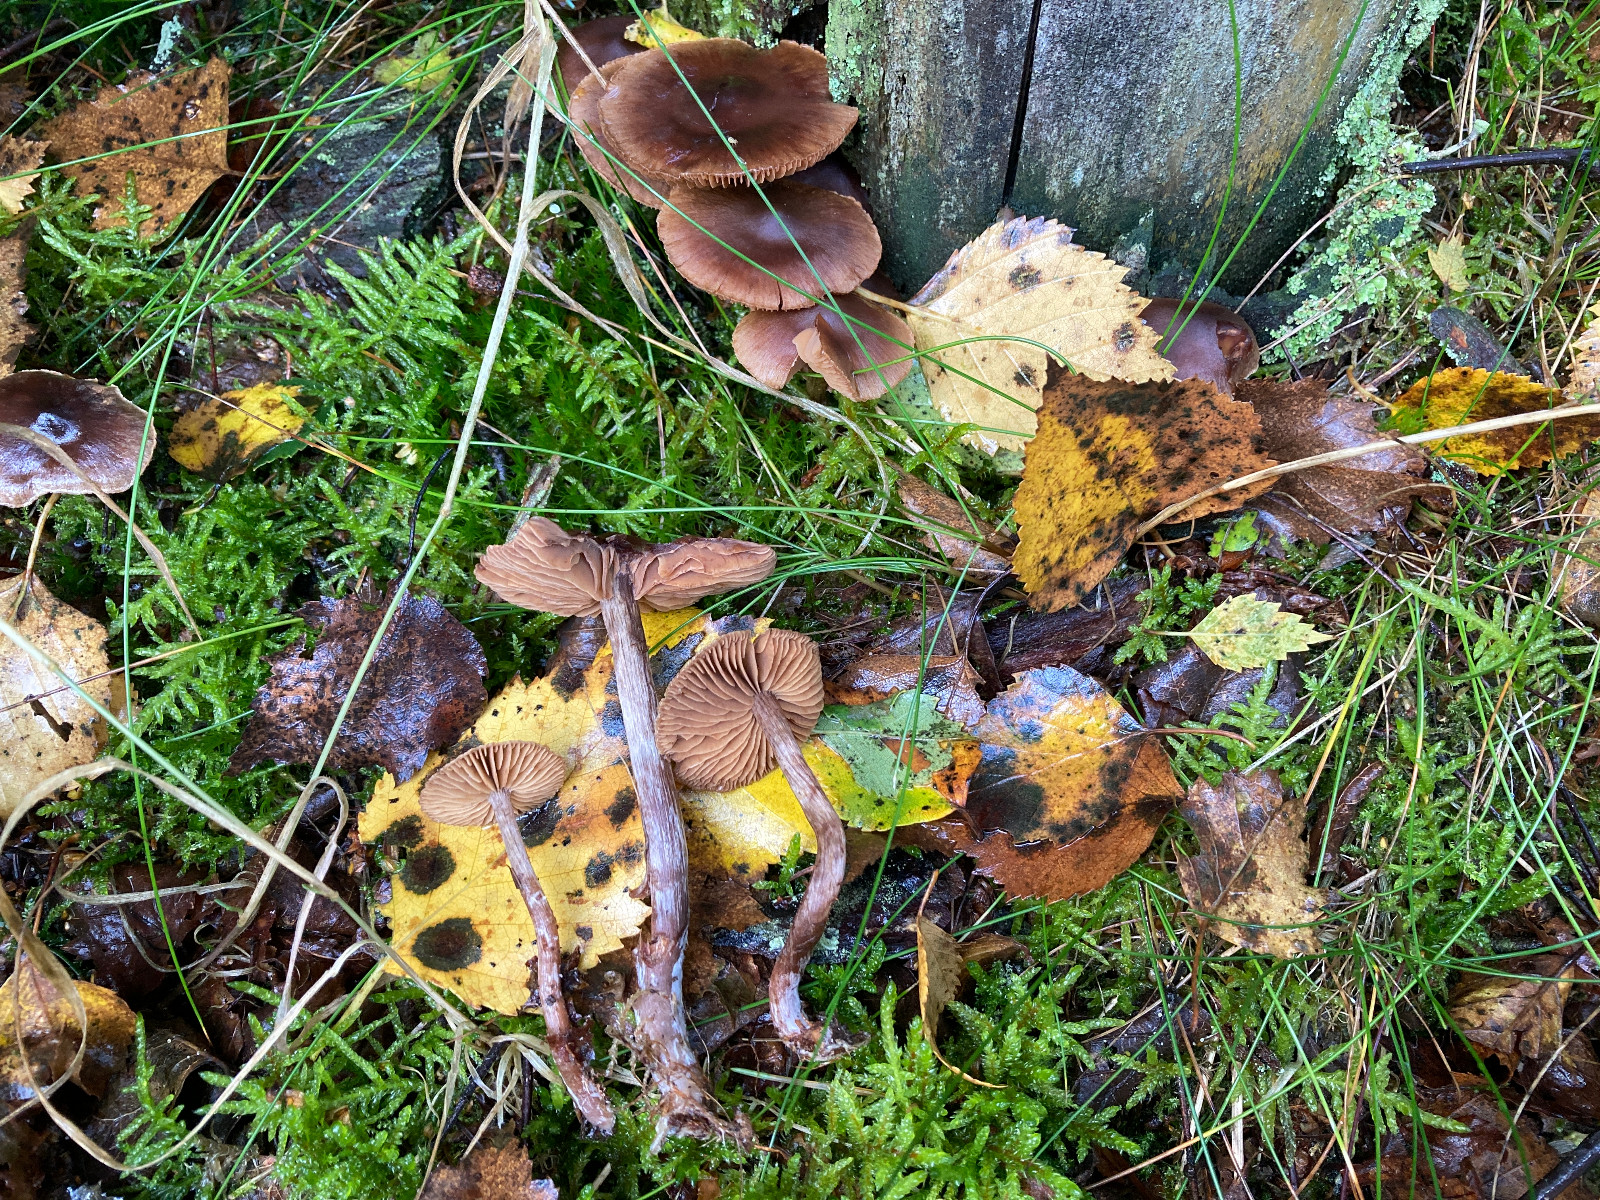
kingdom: Fungi
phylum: Basidiomycota
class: Agaricomycetes
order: Agaricales
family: Cortinariaceae
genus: Cortinarius
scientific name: Cortinarius umbrinolens
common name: mørk slørhat
